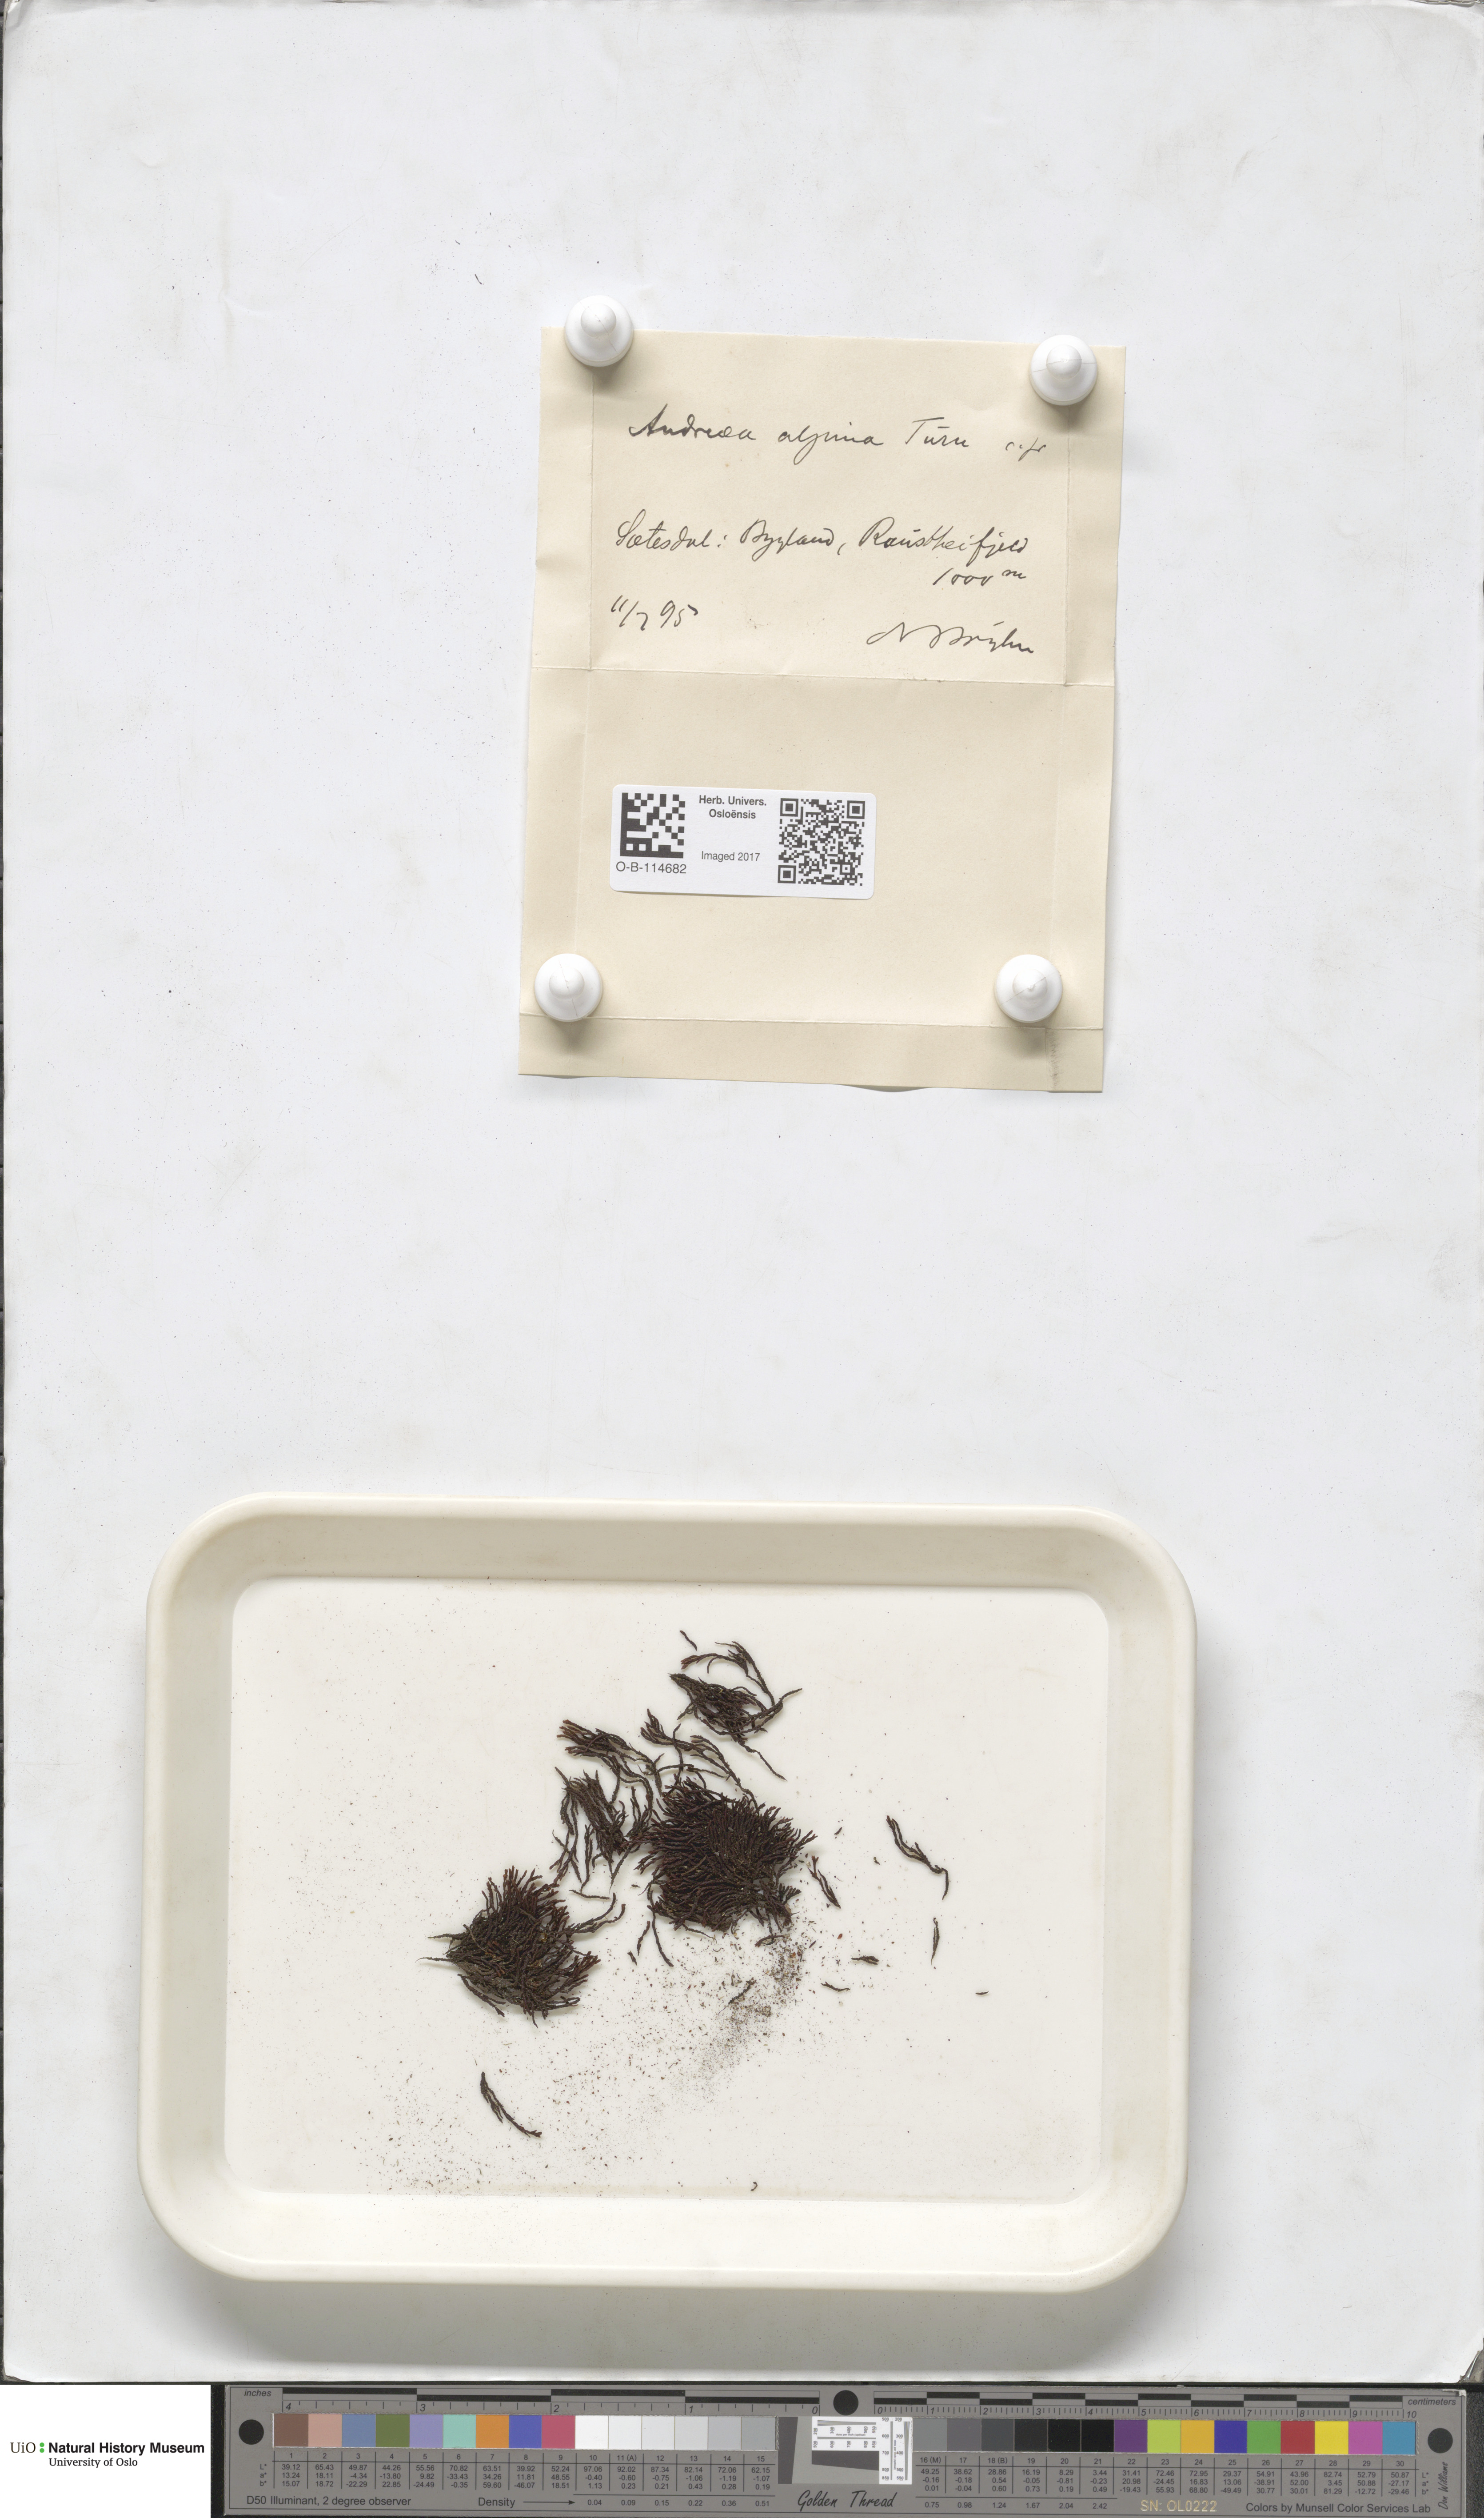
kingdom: Plantae
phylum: Bryophyta
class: Andreaeopsida
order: Andreaeales
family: Andreaeaceae
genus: Andreaea
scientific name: Andreaea hookeri
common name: Alpine rock-moss
